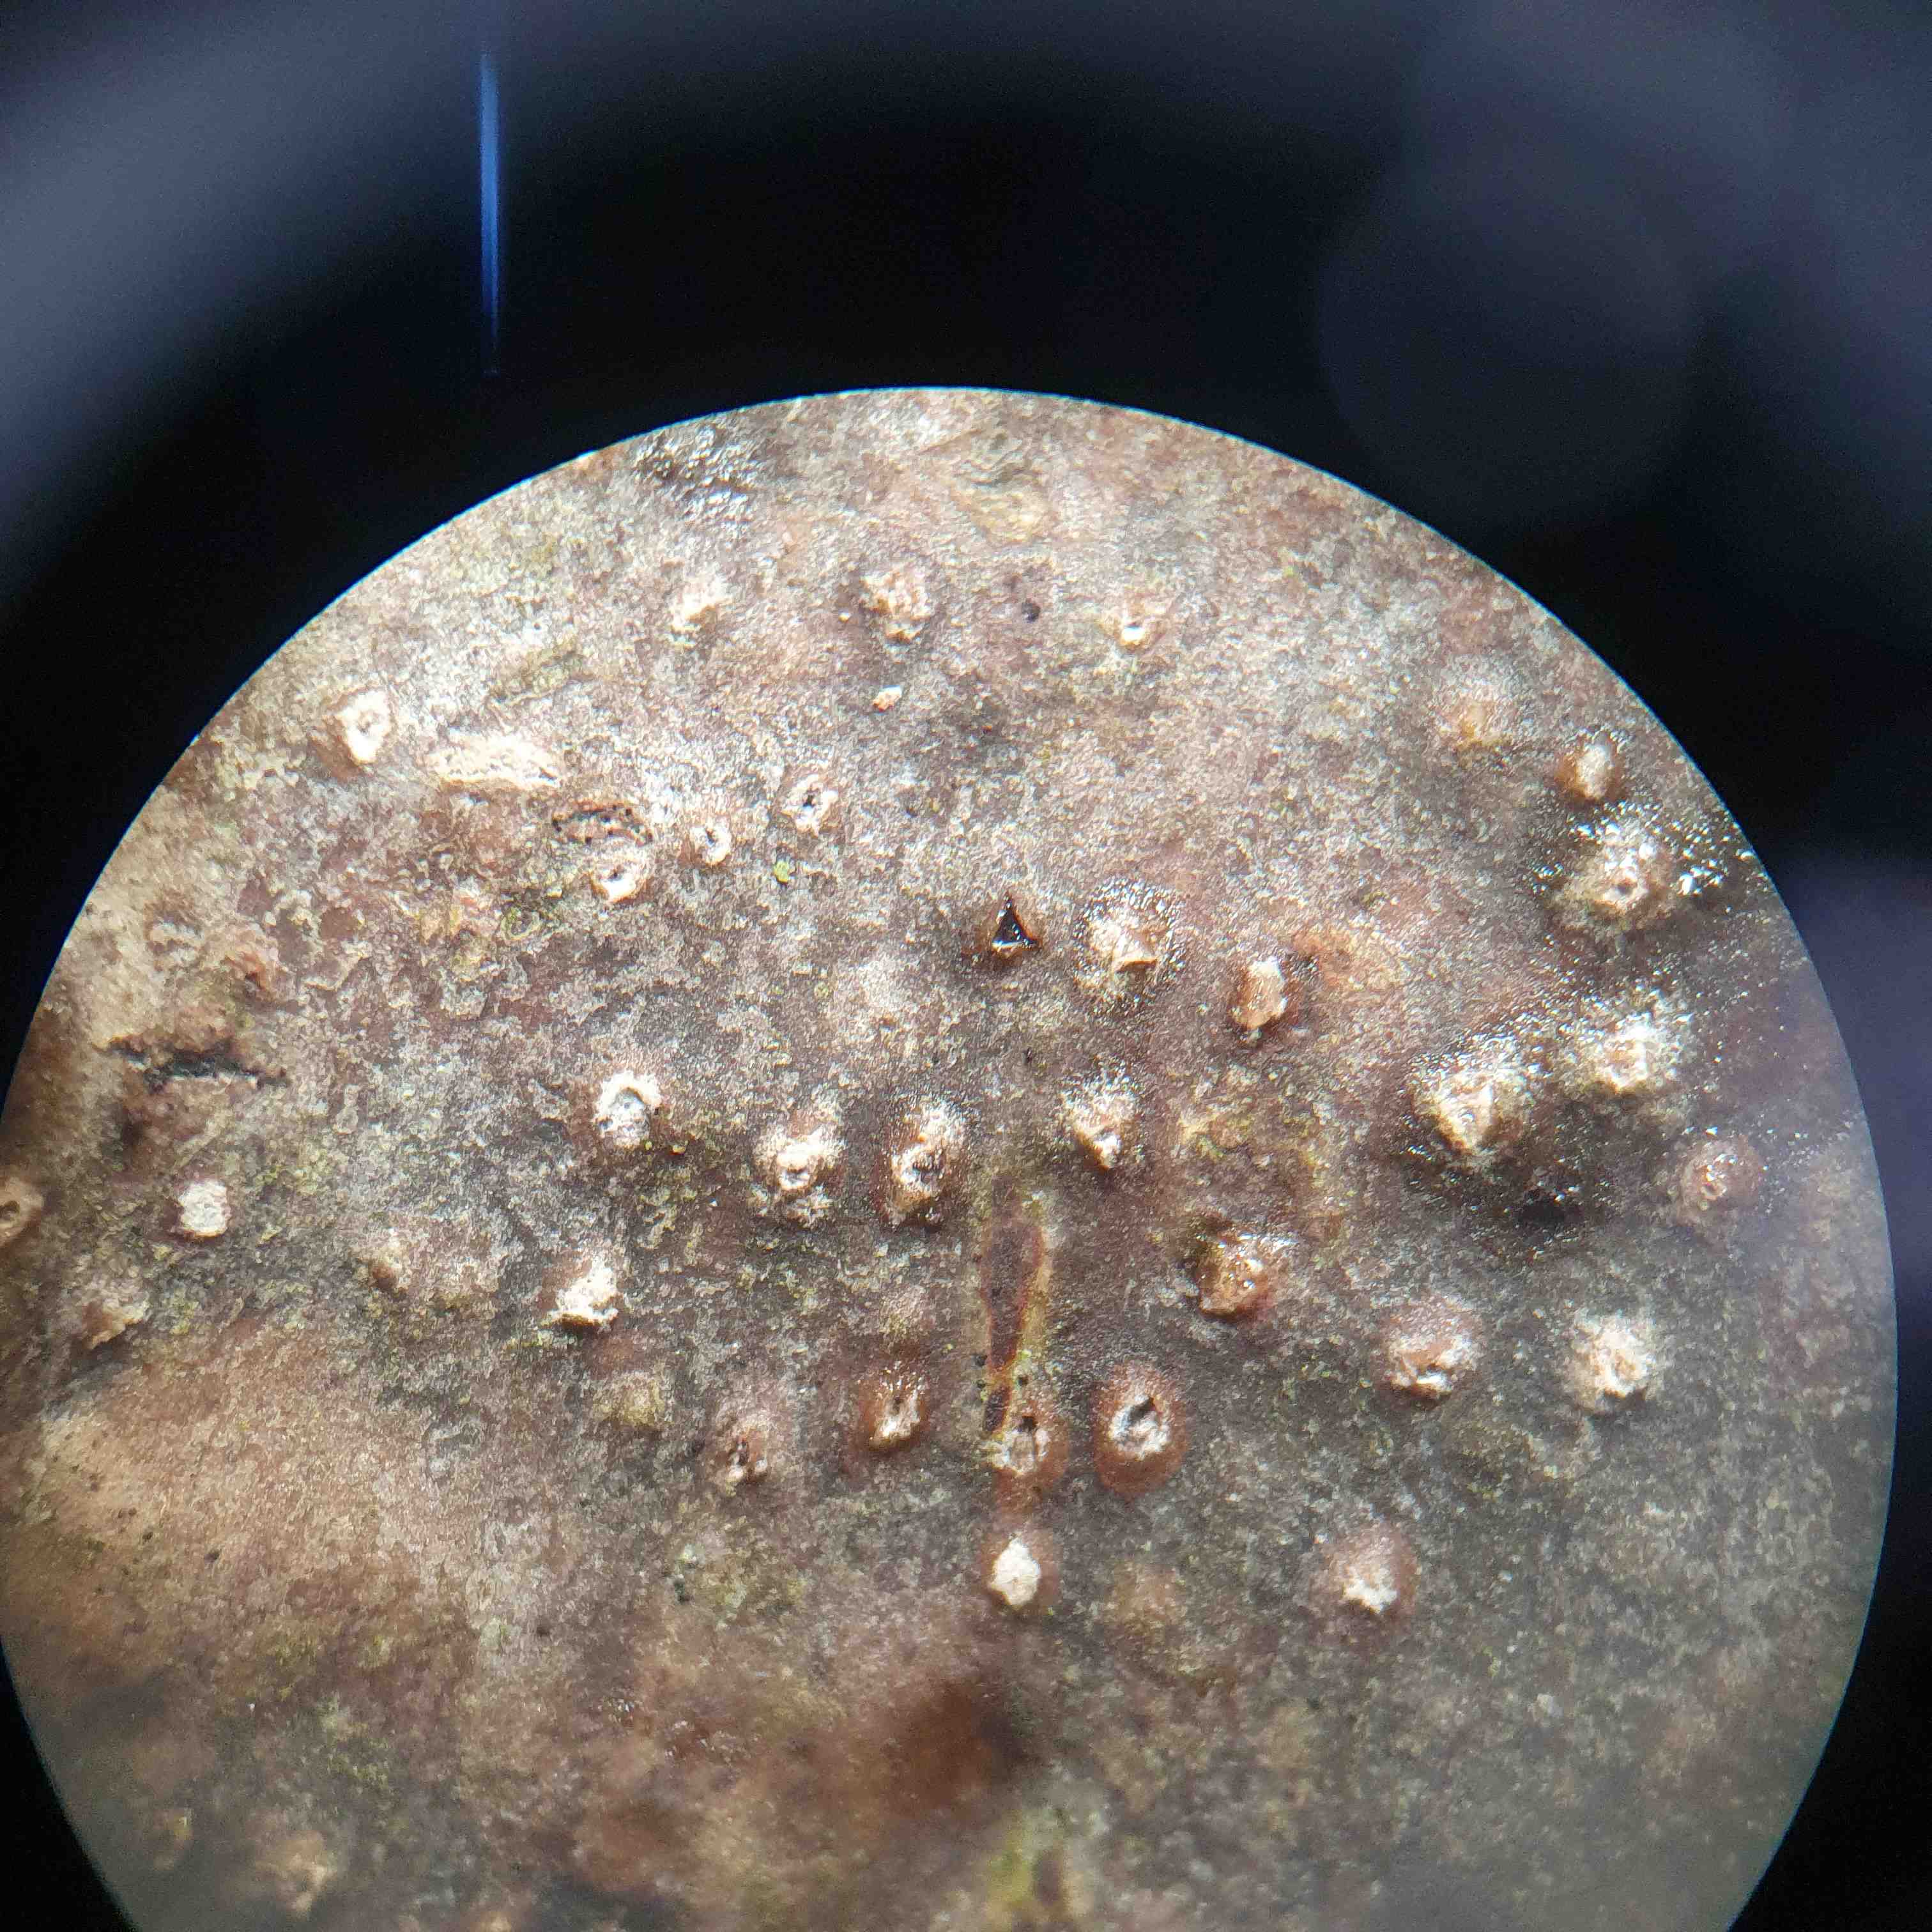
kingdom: Fungi
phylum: Ascomycota
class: Sordariomycetes
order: Diaporthales
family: Valsaceae
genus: Cytospora
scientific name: Cytospora nivea
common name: hvidskivet kulknippe
